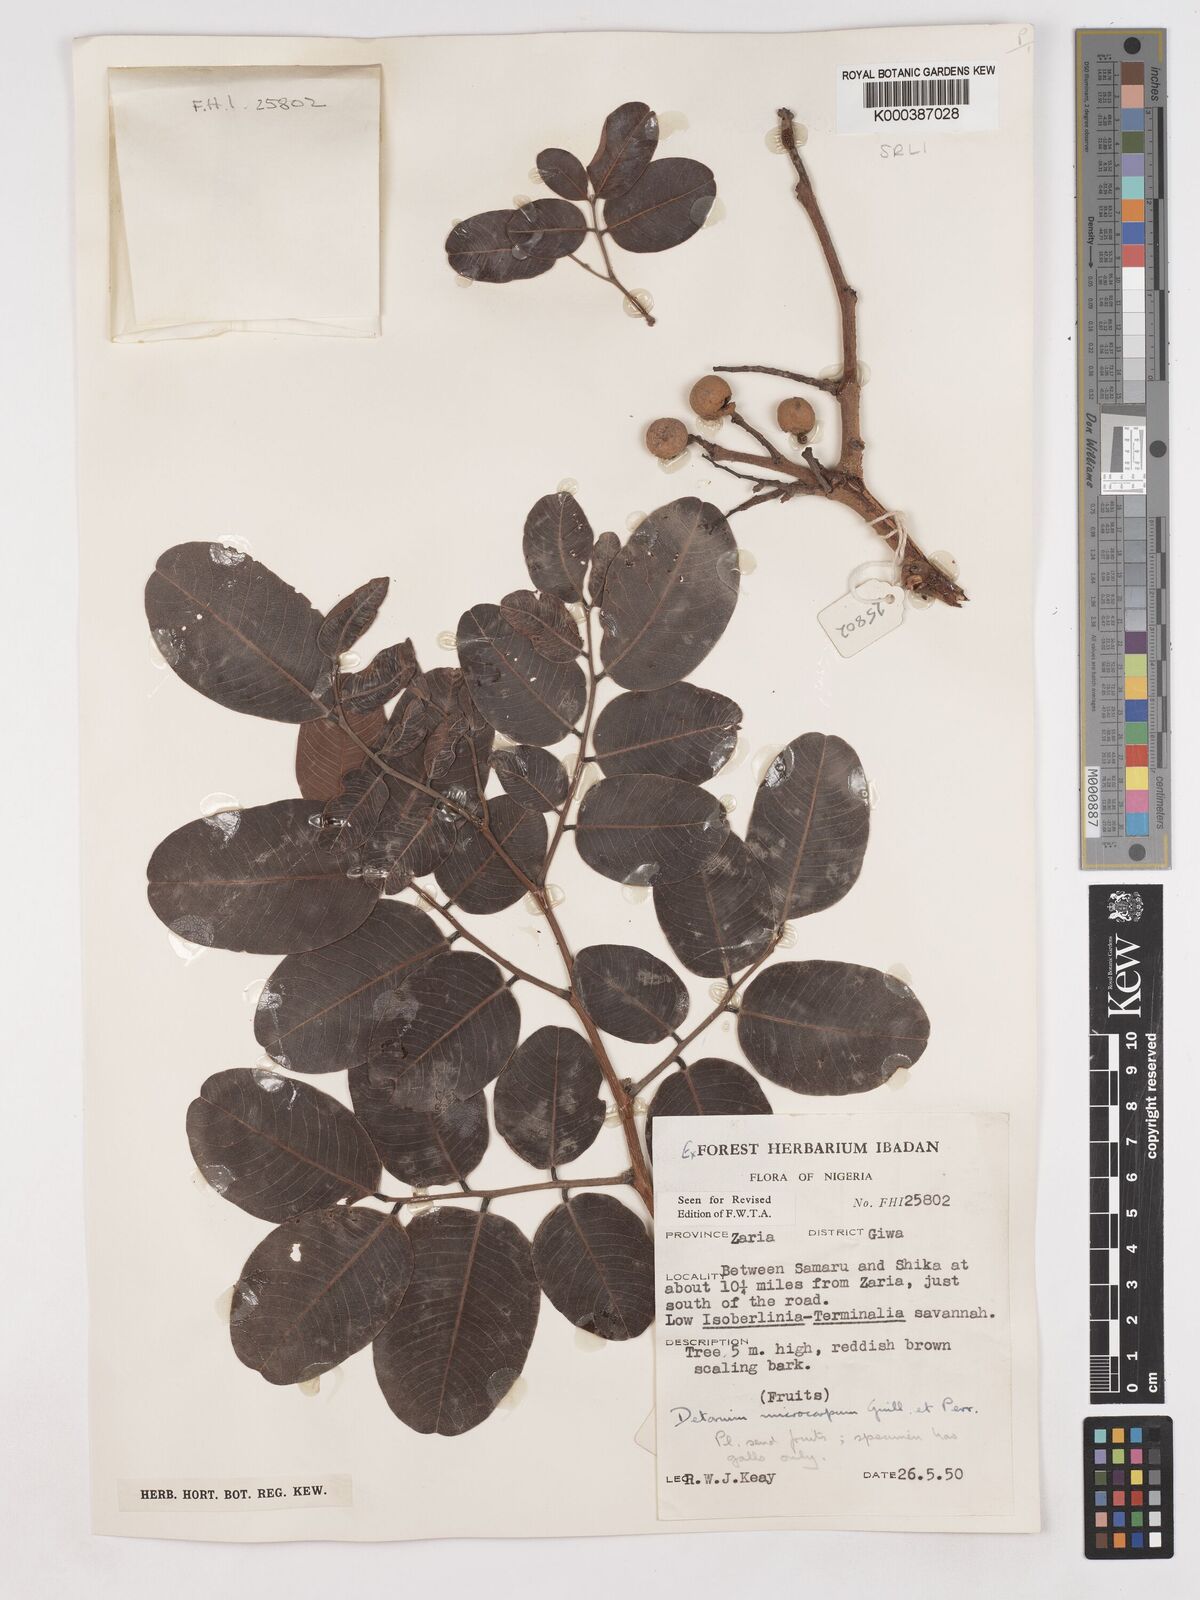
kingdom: Plantae
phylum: Tracheophyta
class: Magnoliopsida
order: Fabales
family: Fabaceae
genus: Detarium
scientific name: Detarium microcarpum
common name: Sweet dattock
